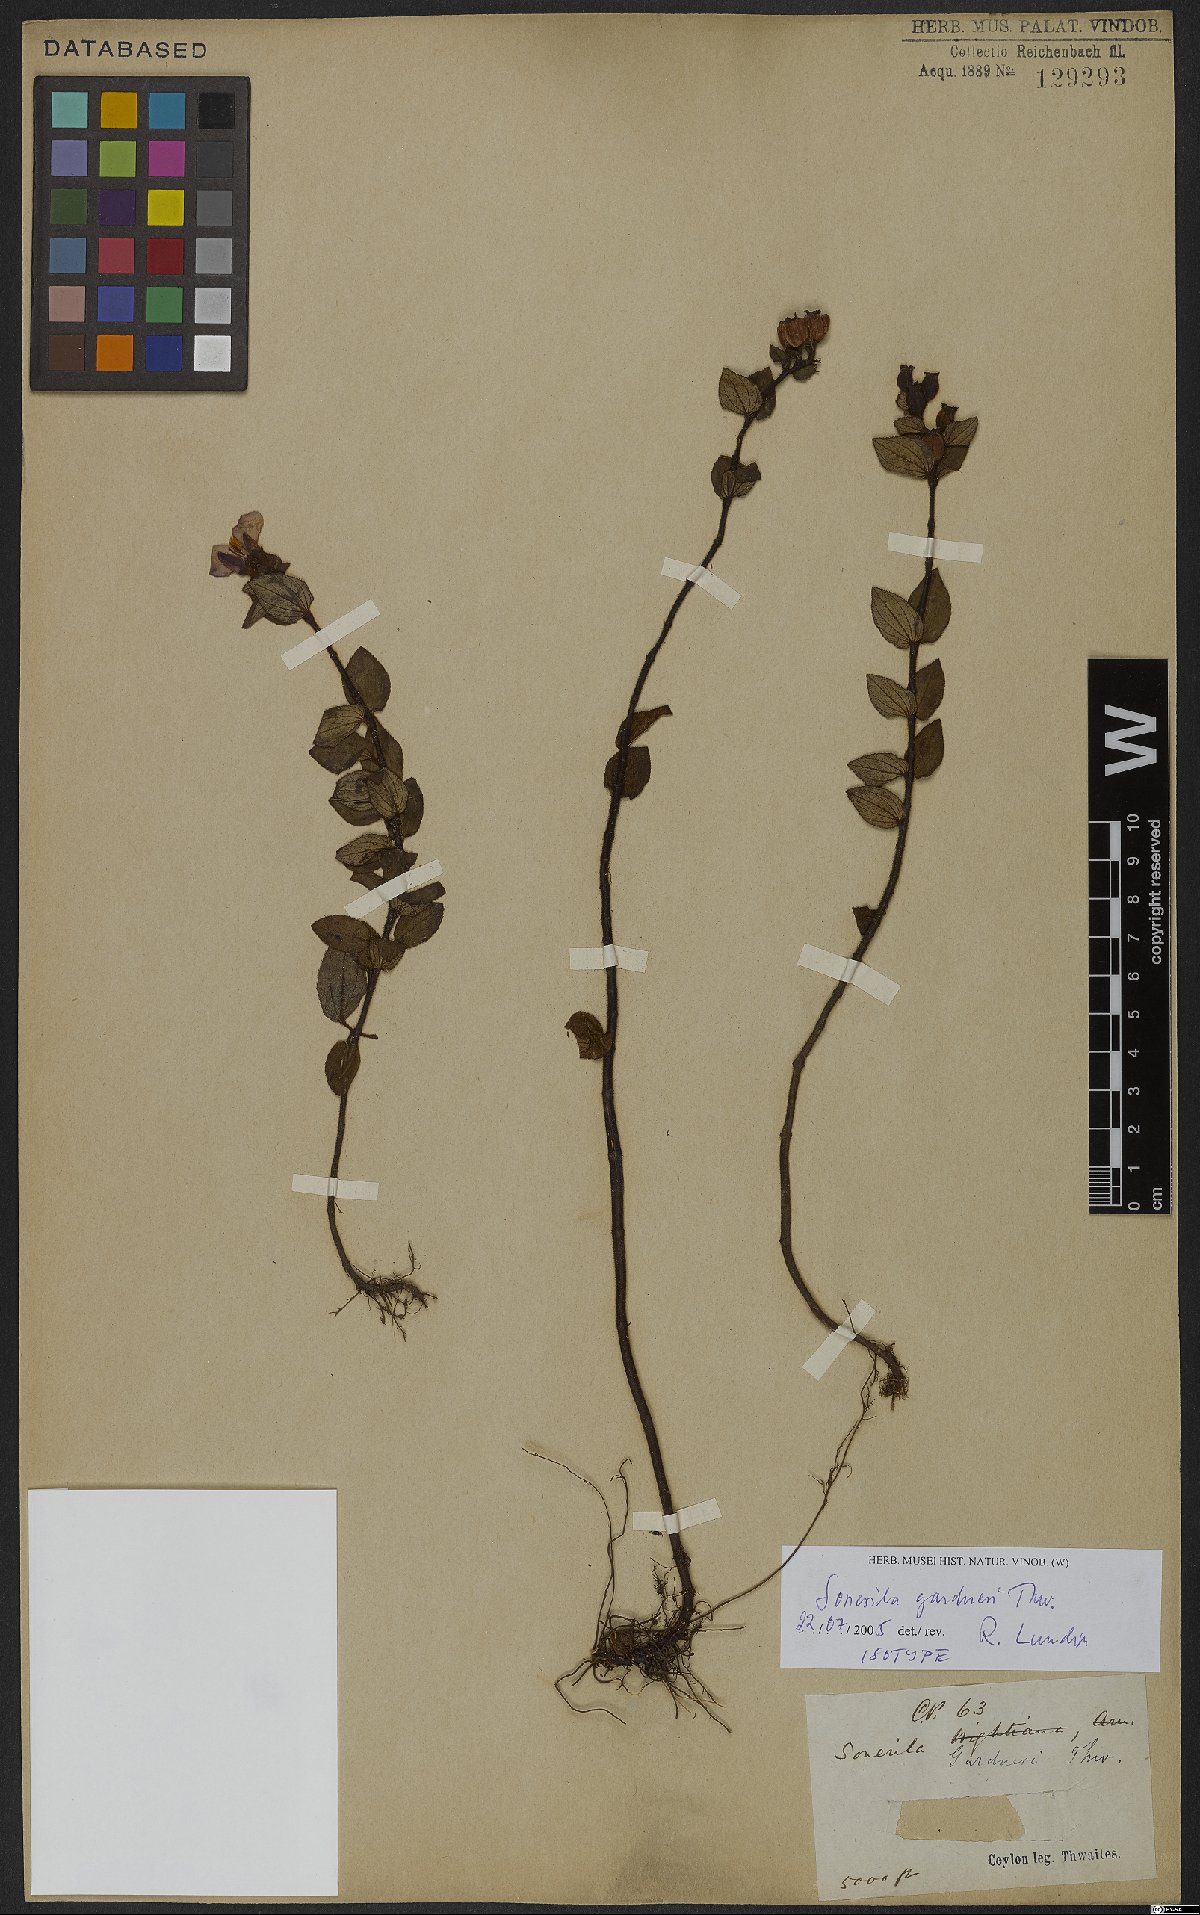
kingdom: Plantae
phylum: Tracheophyta
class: Magnoliopsida
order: Myrtales
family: Melastomataceae
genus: Sonerila
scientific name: Sonerila gardneri
